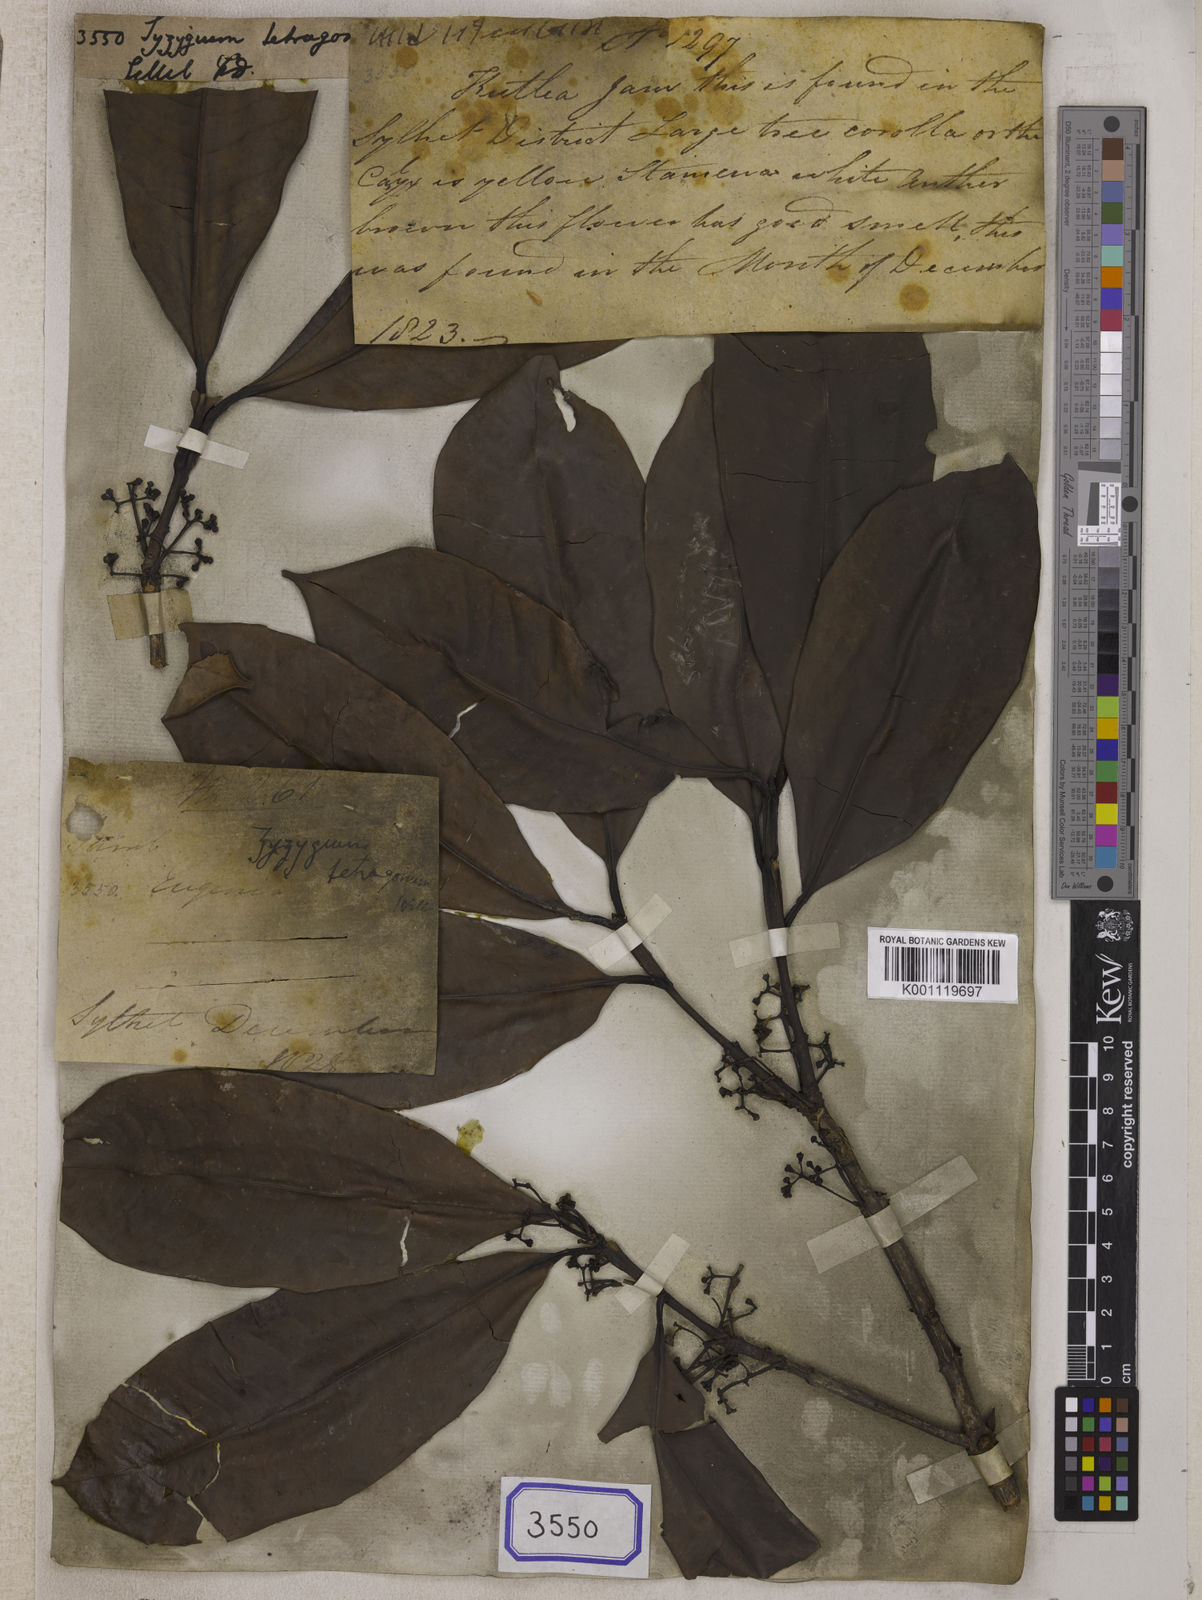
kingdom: Plantae
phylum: Tracheophyta
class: Magnoliopsida
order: Myrtales
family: Myrtaceae
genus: Syzygium
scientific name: Syzygium
